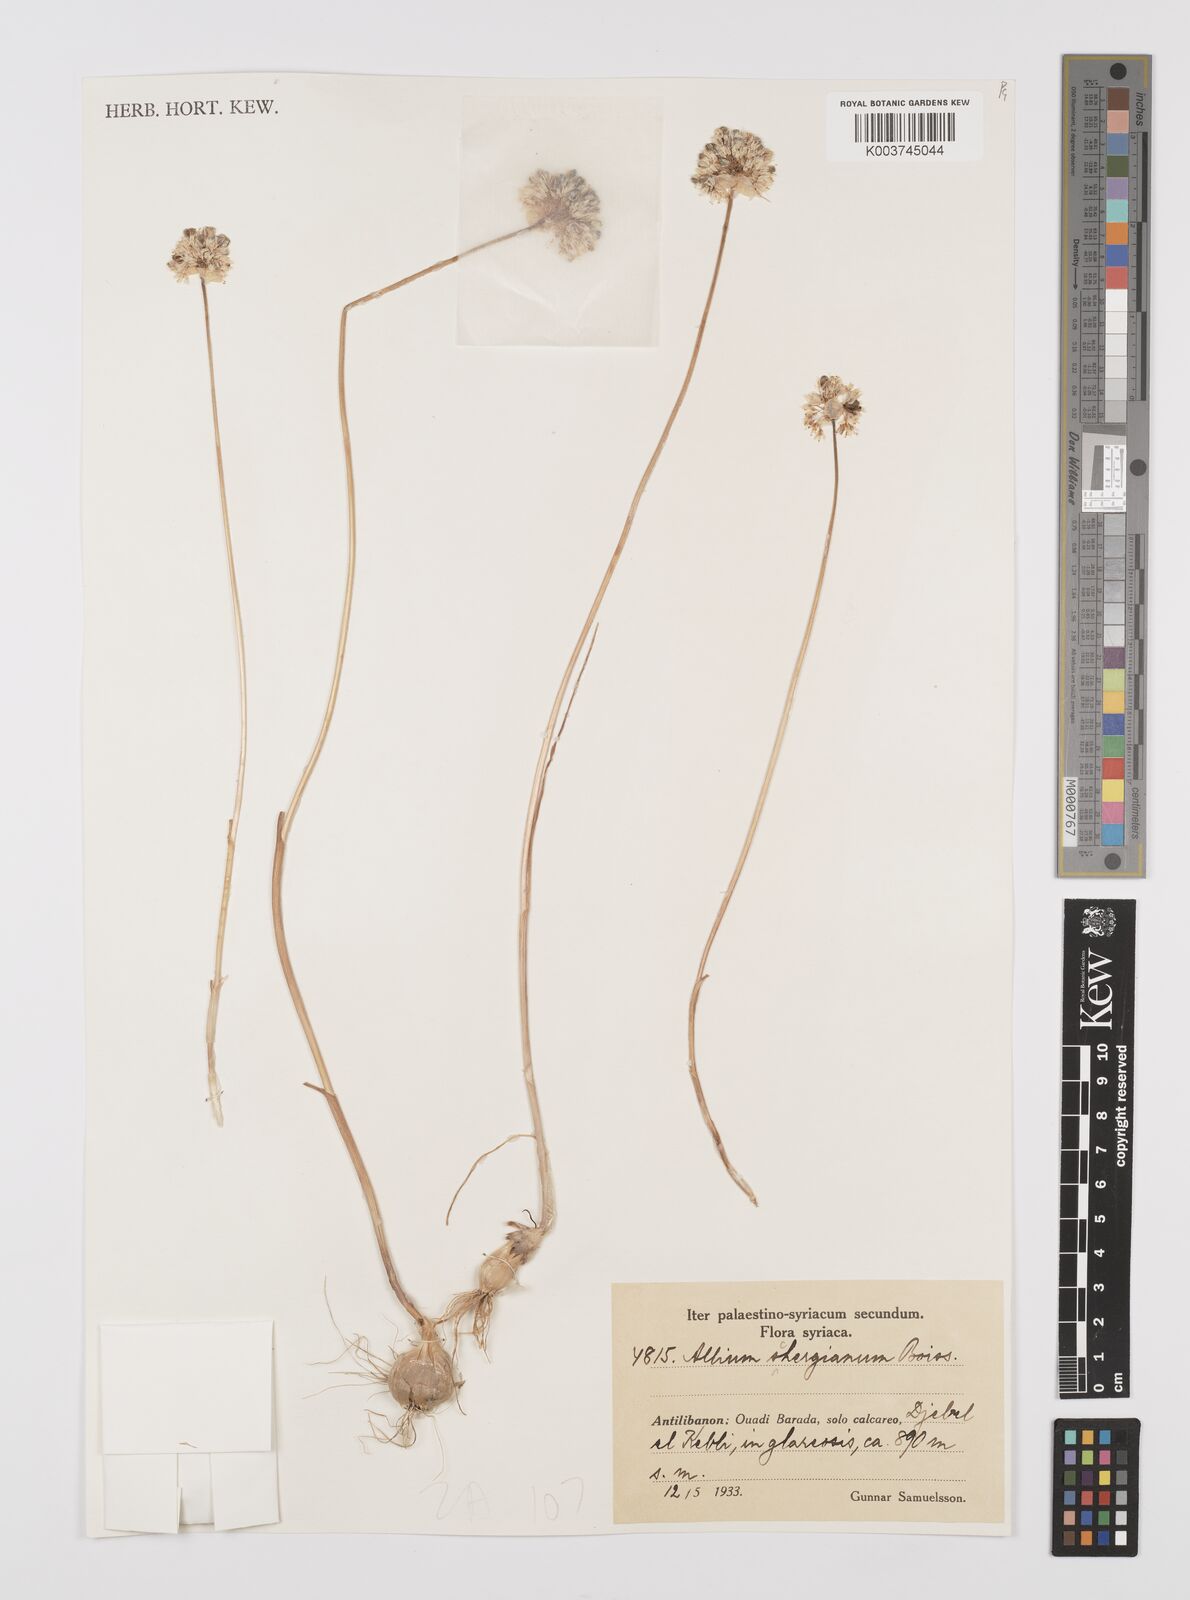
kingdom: Plantae
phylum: Tracheophyta
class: Liliopsida
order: Asparagales
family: Amaryllidaceae
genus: Allium
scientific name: Allium schergianum
